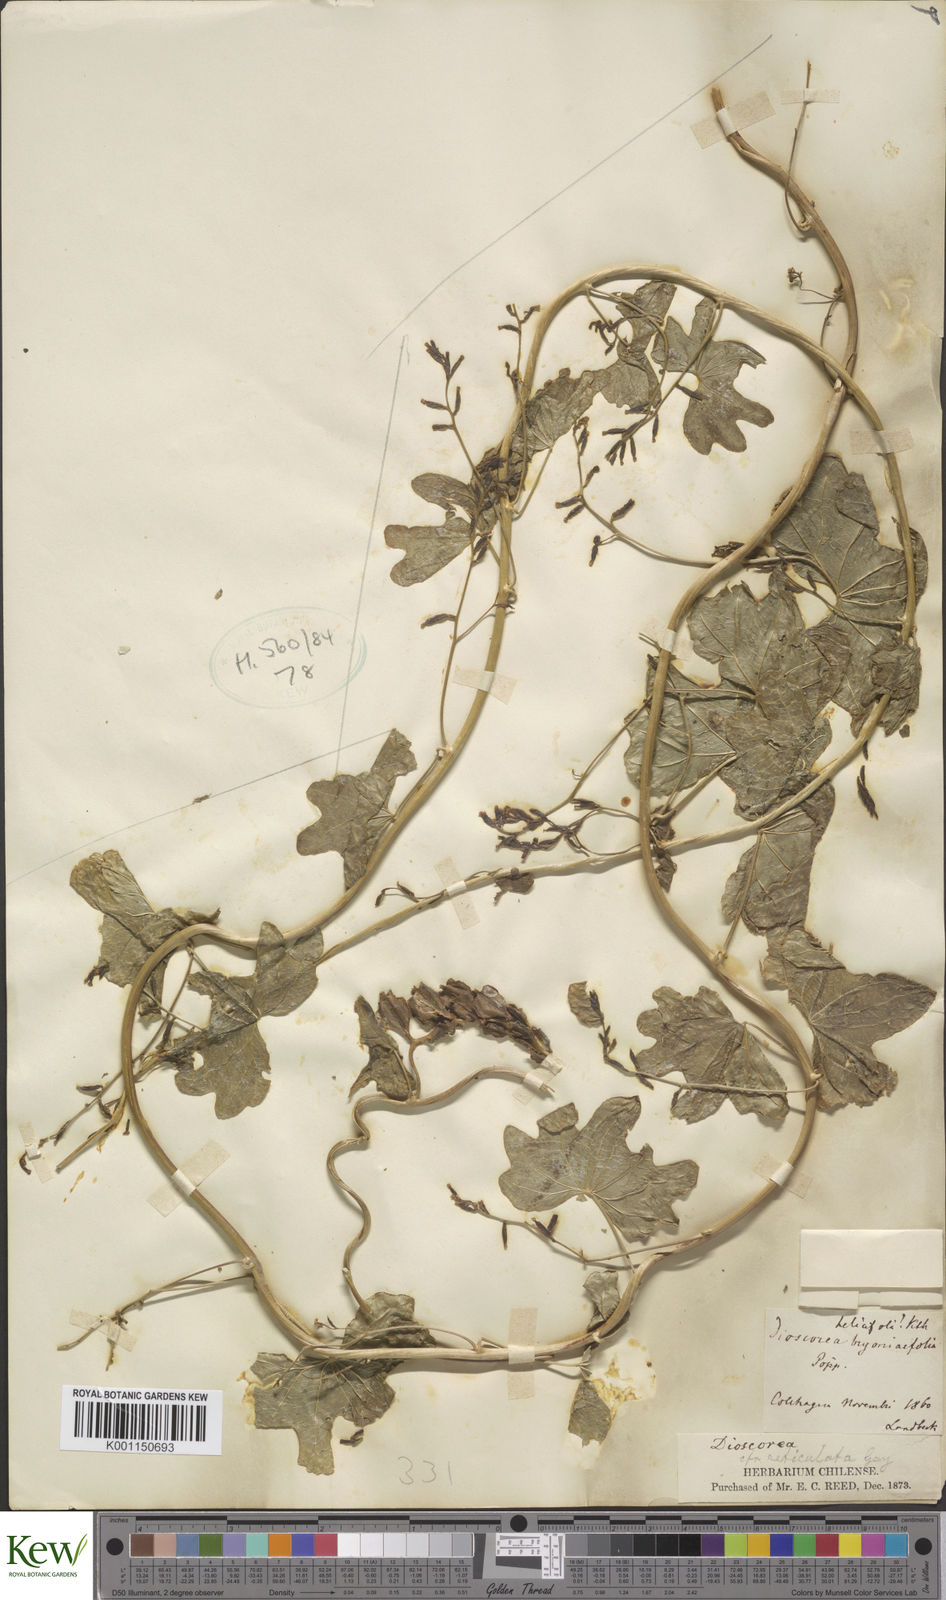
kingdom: Plantae
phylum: Tracheophyta
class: Liliopsida
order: Dioscoreales
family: Dioscoreaceae
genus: Dioscorea
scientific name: Dioscorea bryoniifolia
